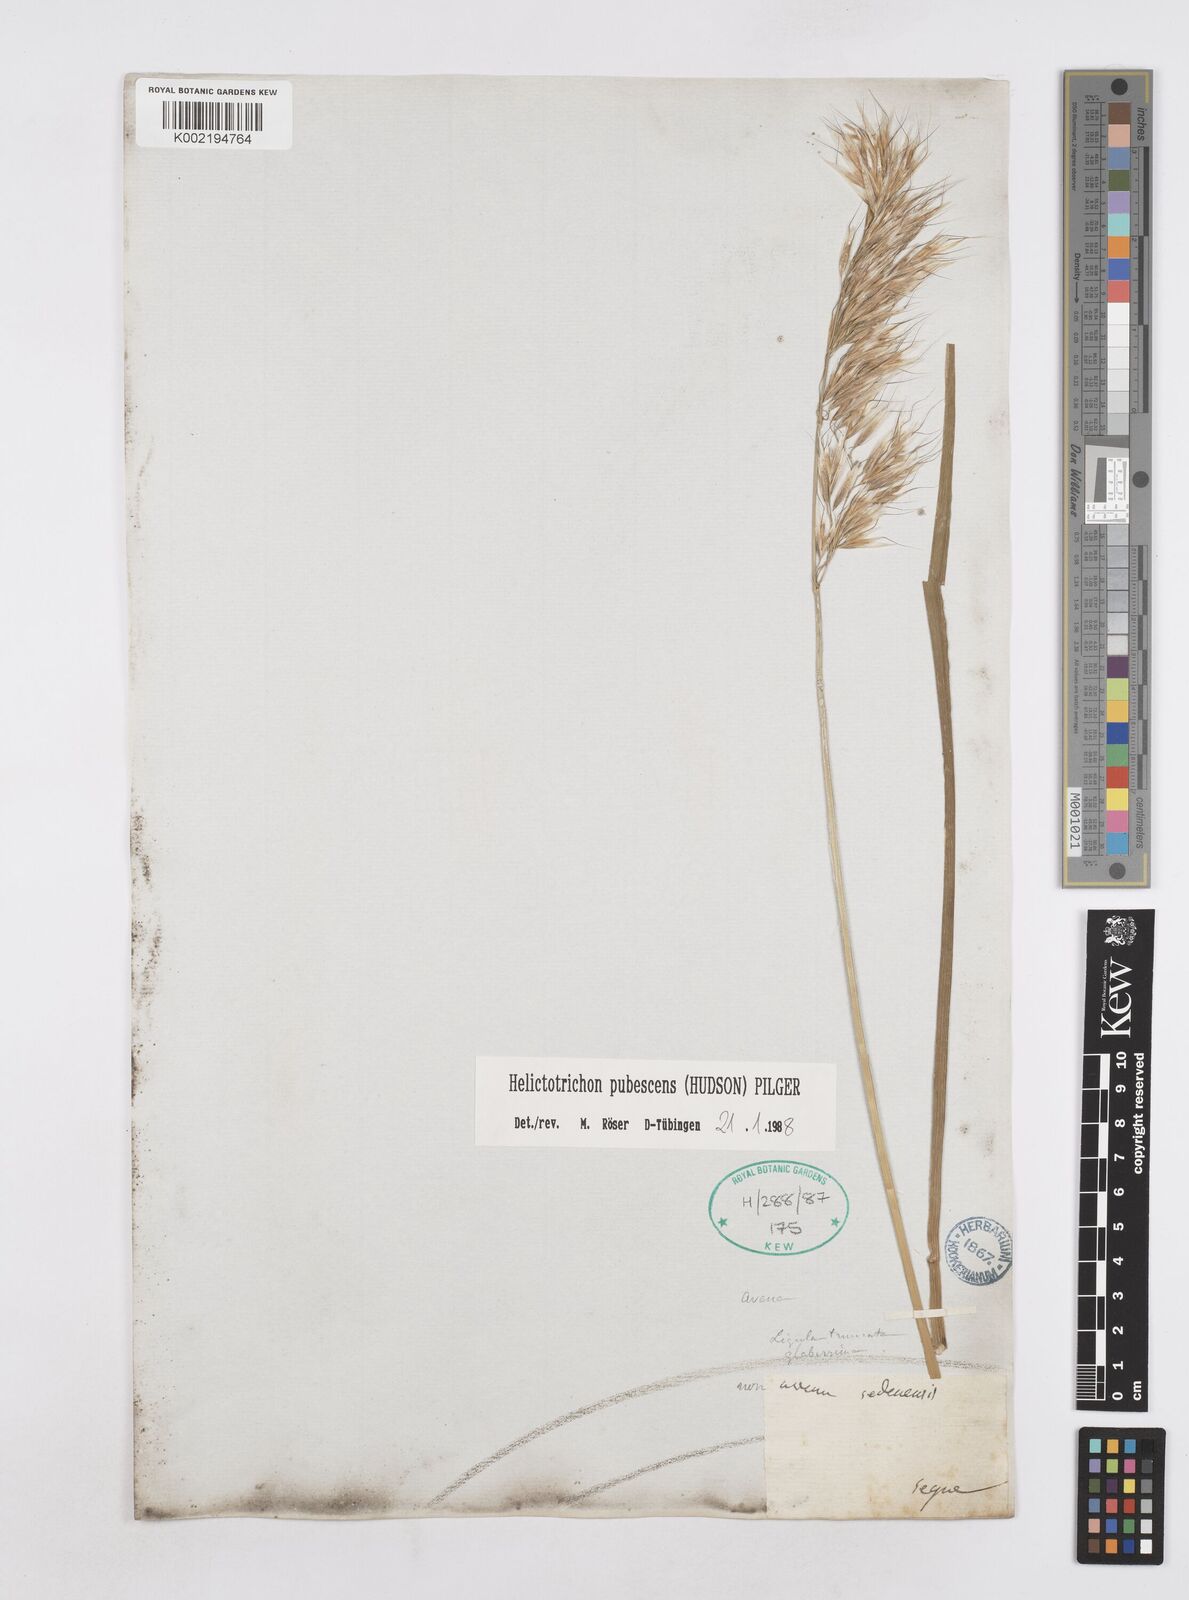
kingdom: Plantae
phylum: Tracheophyta
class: Liliopsida
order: Poales
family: Poaceae
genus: Avenula
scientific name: Avenula pubescens
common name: Downy alpine oatgrass
